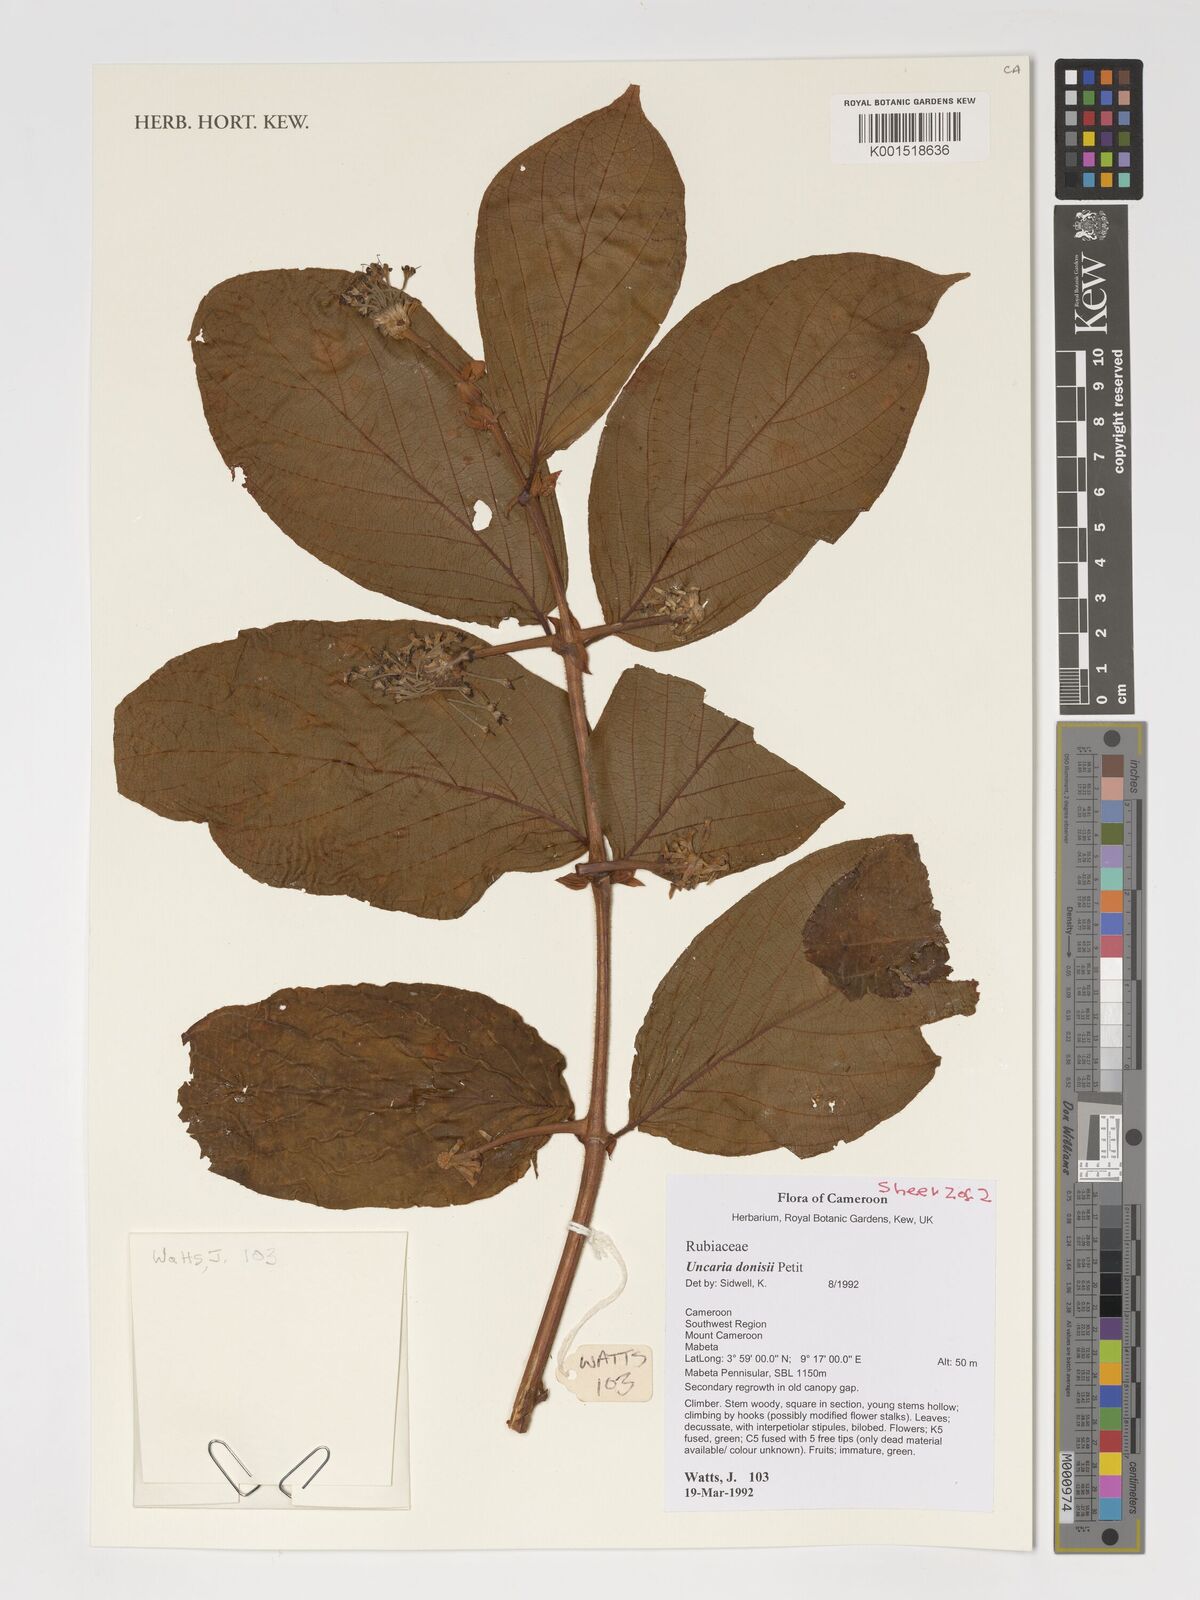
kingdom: Plantae
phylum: Tracheophyta
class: Magnoliopsida
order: Gentianales
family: Rubiaceae
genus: Uncaria
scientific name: Uncaria donisii
